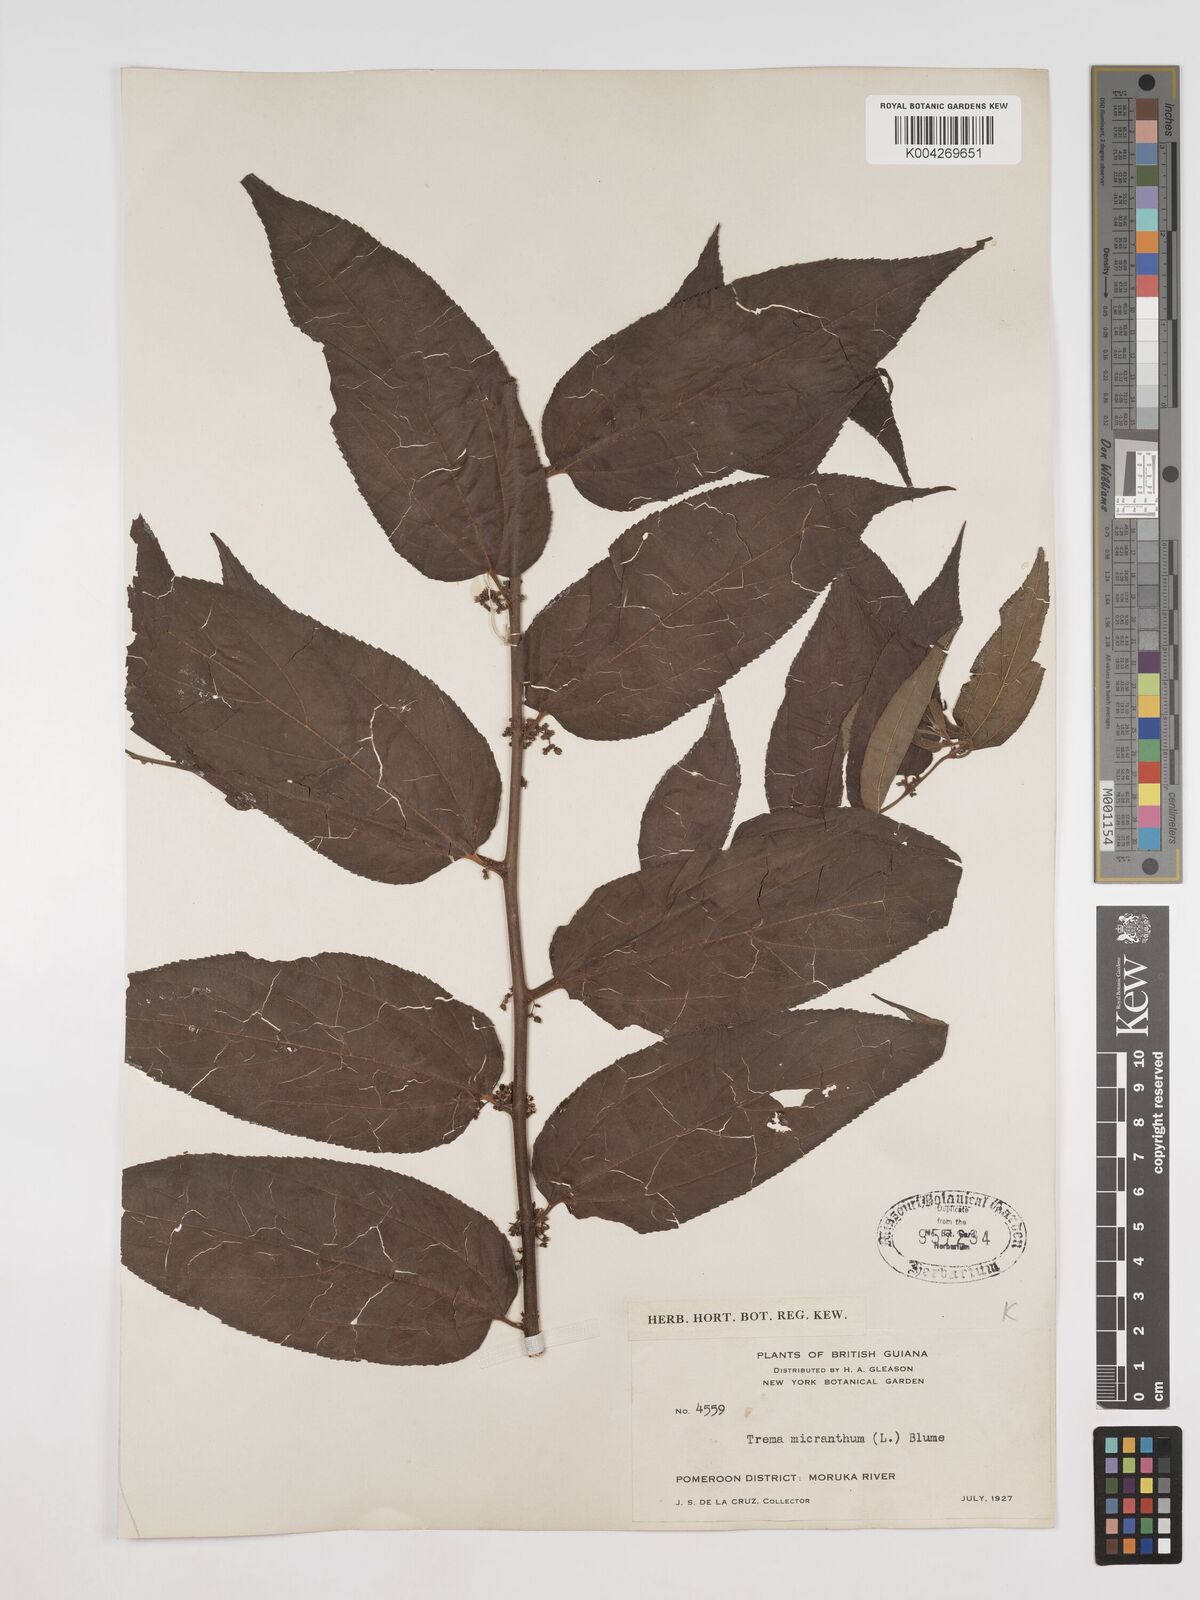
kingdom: Plantae
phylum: Tracheophyta
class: Magnoliopsida
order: Rosales
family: Cannabaceae
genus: Trema
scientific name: Trema micranthum
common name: Jamaican nettletree
